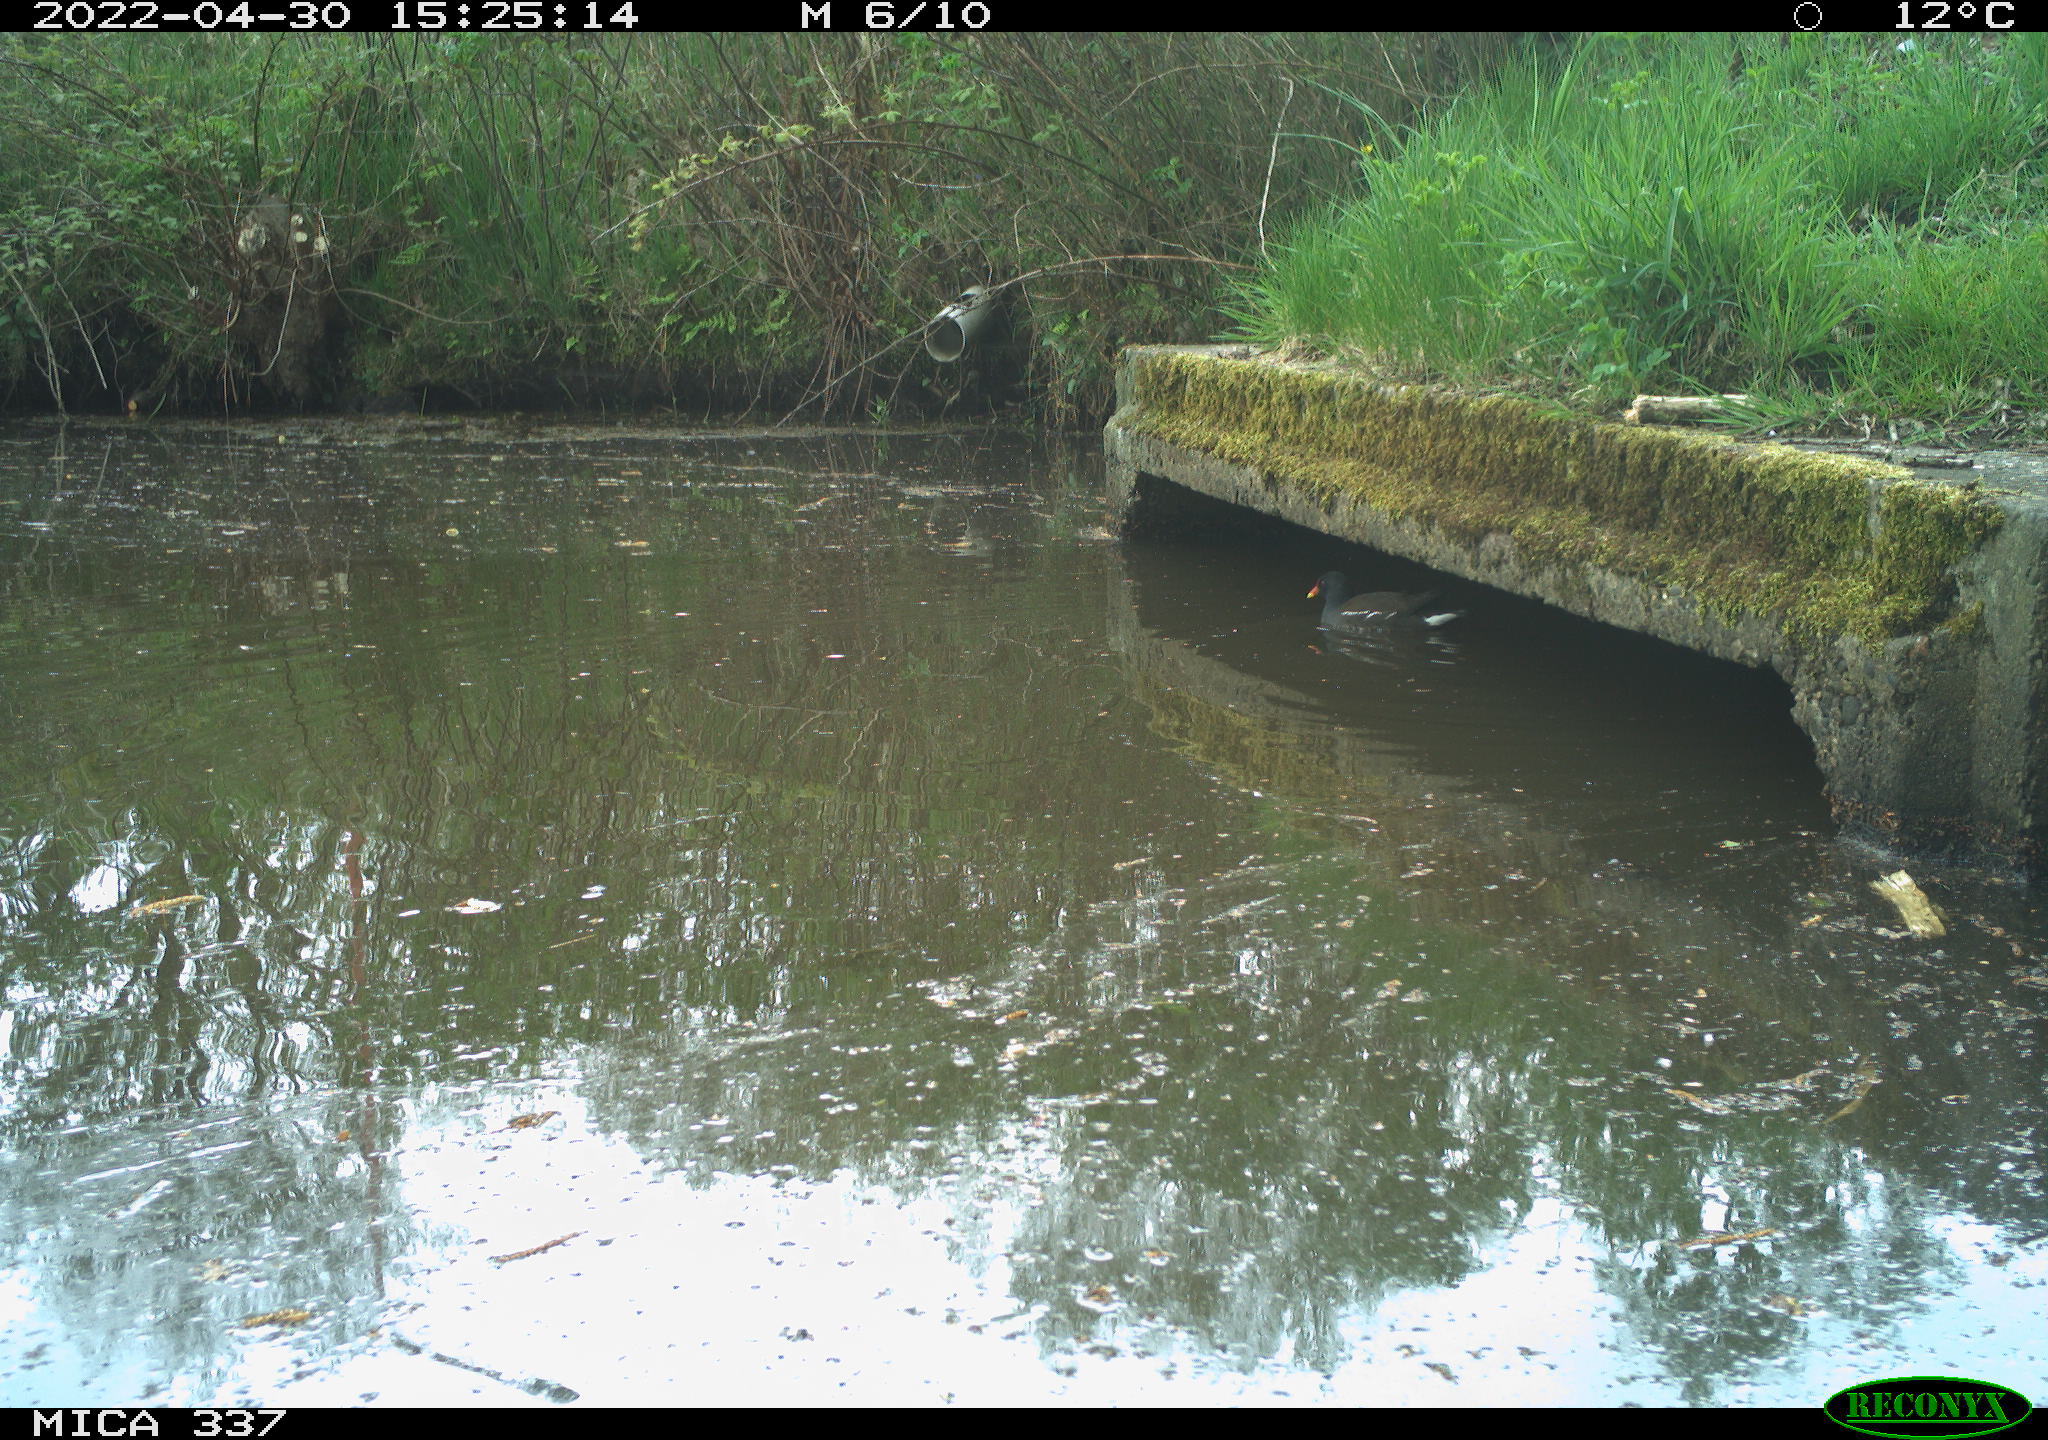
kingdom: Animalia
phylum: Chordata
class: Aves
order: Gruiformes
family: Rallidae
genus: Gallinula
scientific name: Gallinula chloropus
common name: Common moorhen
